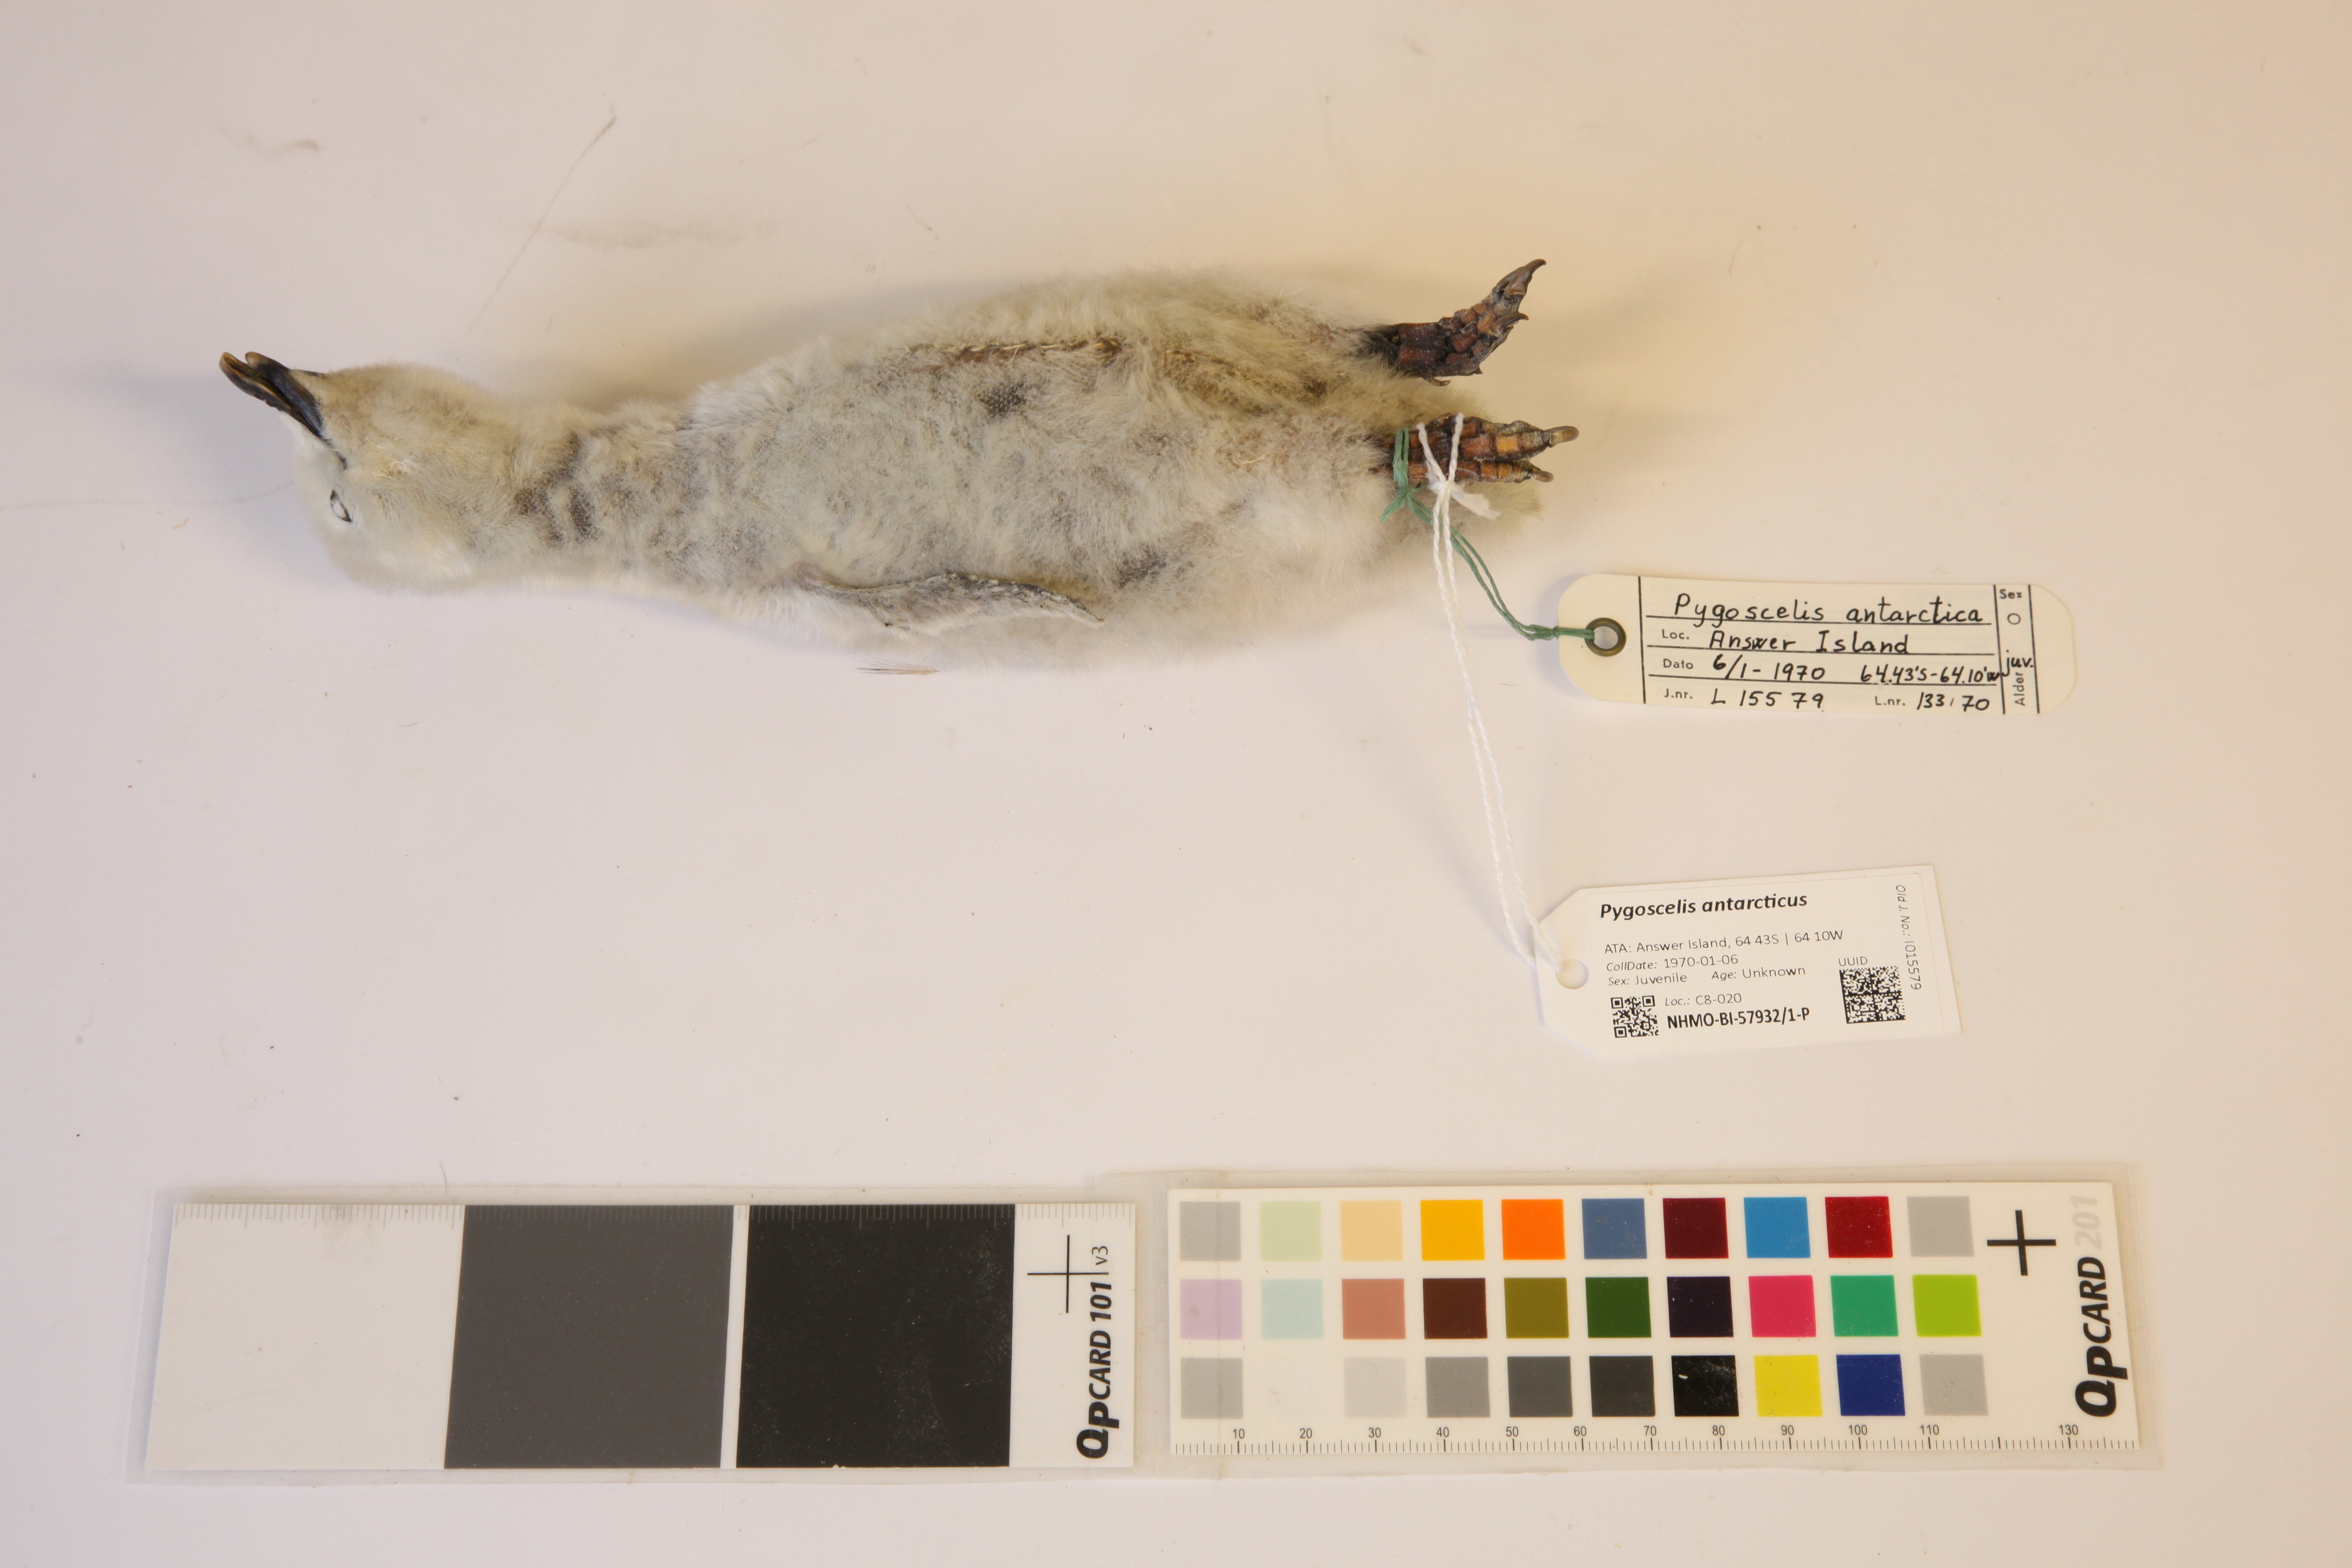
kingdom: Animalia
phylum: Chordata
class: Aves
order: Sphenisciformes
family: Spheniscidae
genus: Pygoscelis
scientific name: Pygoscelis antarcticus
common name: Chinstrap penguin
